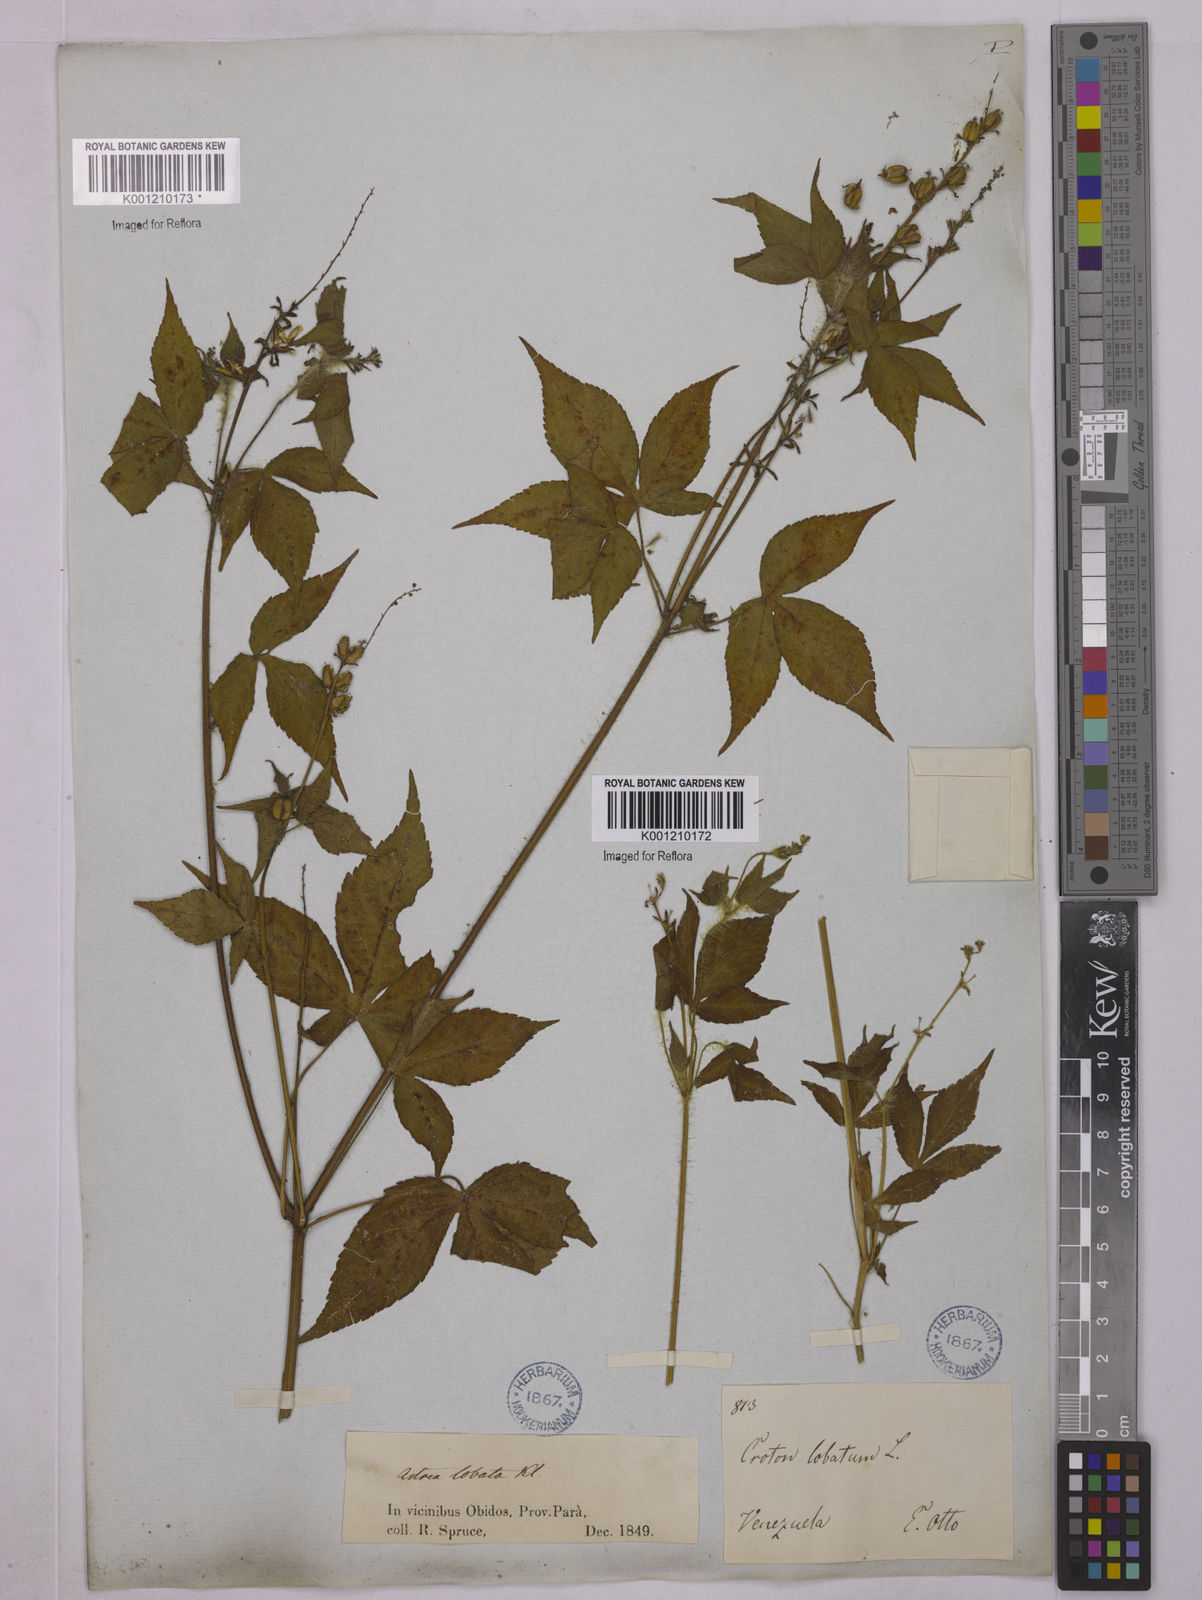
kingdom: Plantae
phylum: Tracheophyta
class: Magnoliopsida
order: Malpighiales
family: Euphorbiaceae
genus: Astraea
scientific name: Astraea lobata
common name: Lobed croton
